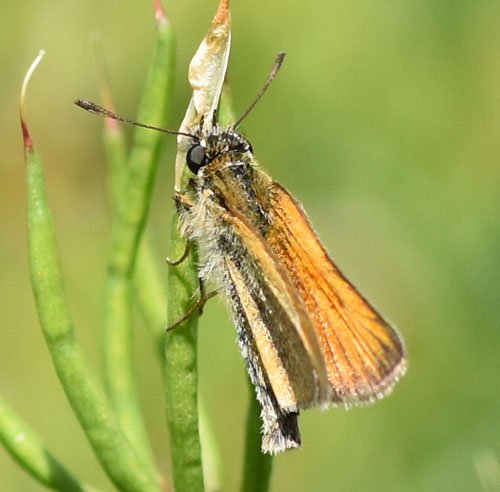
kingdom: Animalia
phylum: Arthropoda
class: Insecta
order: Lepidoptera
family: Hesperiidae
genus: Thymelicus
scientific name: Thymelicus lineola
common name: European Skipper
